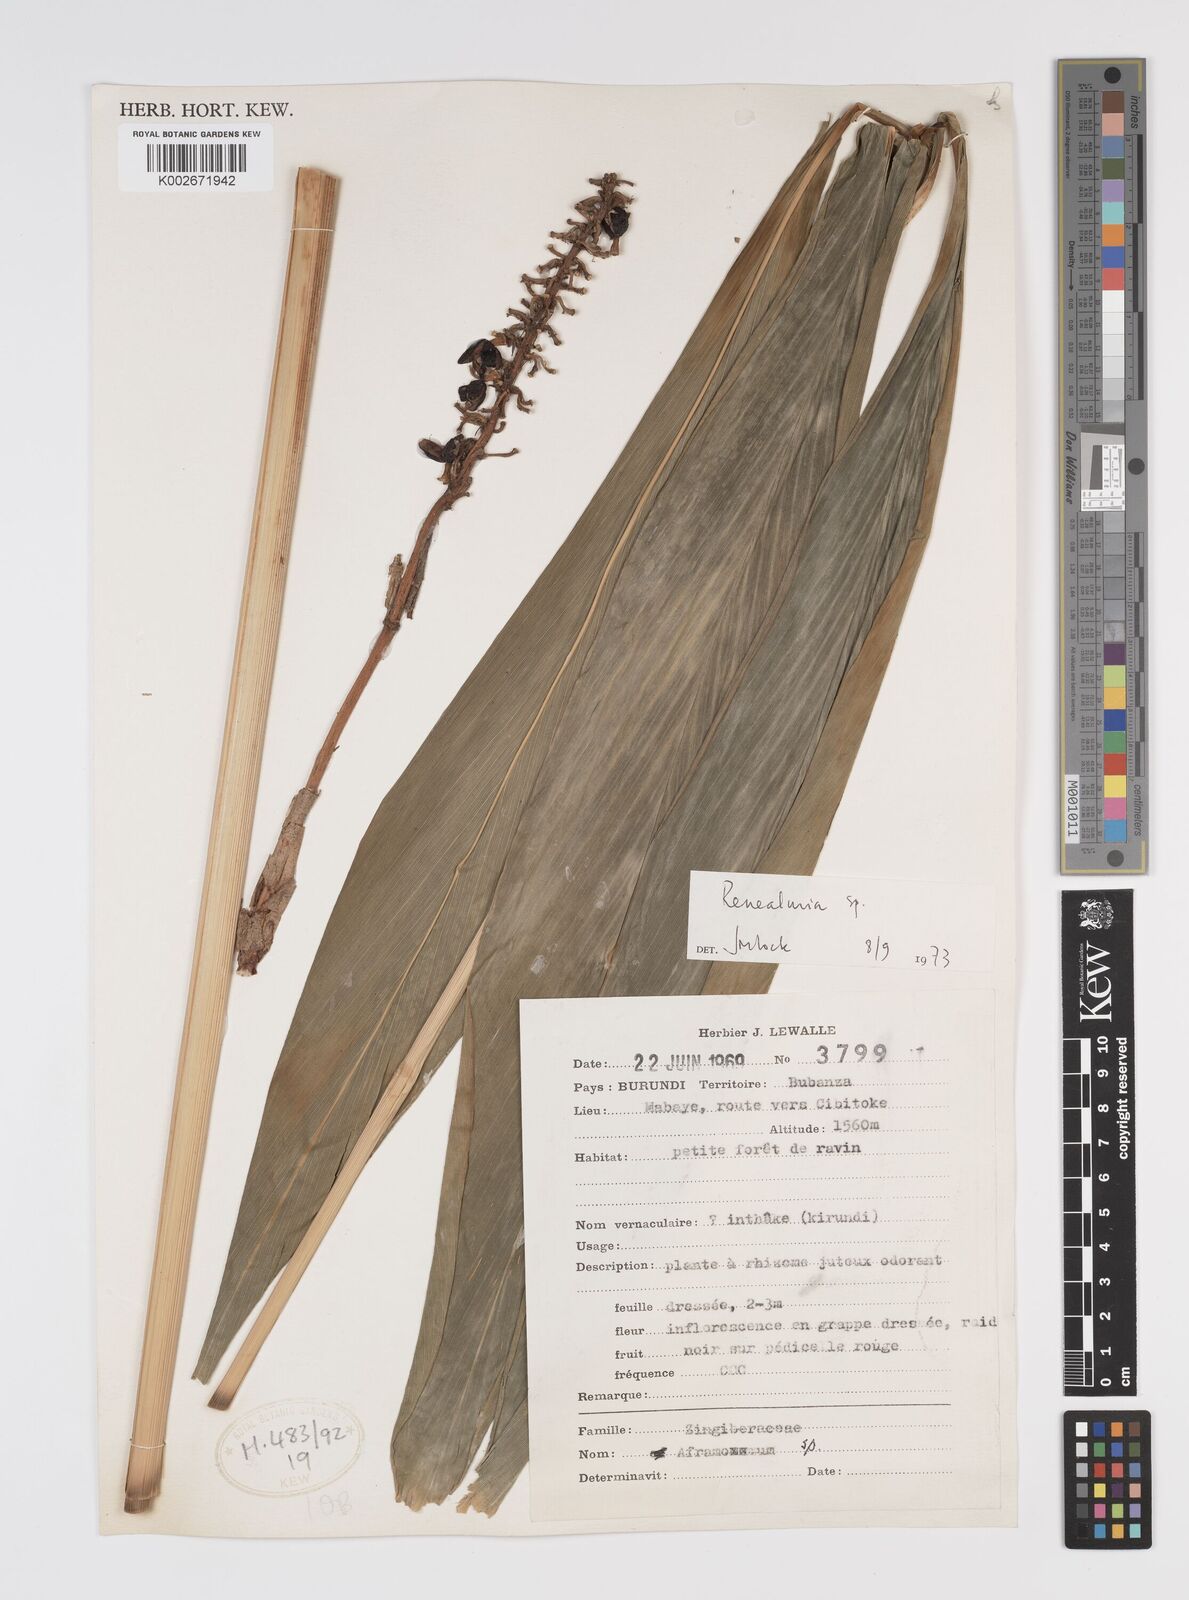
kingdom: Plantae
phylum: Tracheophyta
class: Liliopsida
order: Zingiberales
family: Zingiberaceae
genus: Renealmia
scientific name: Renealmia
